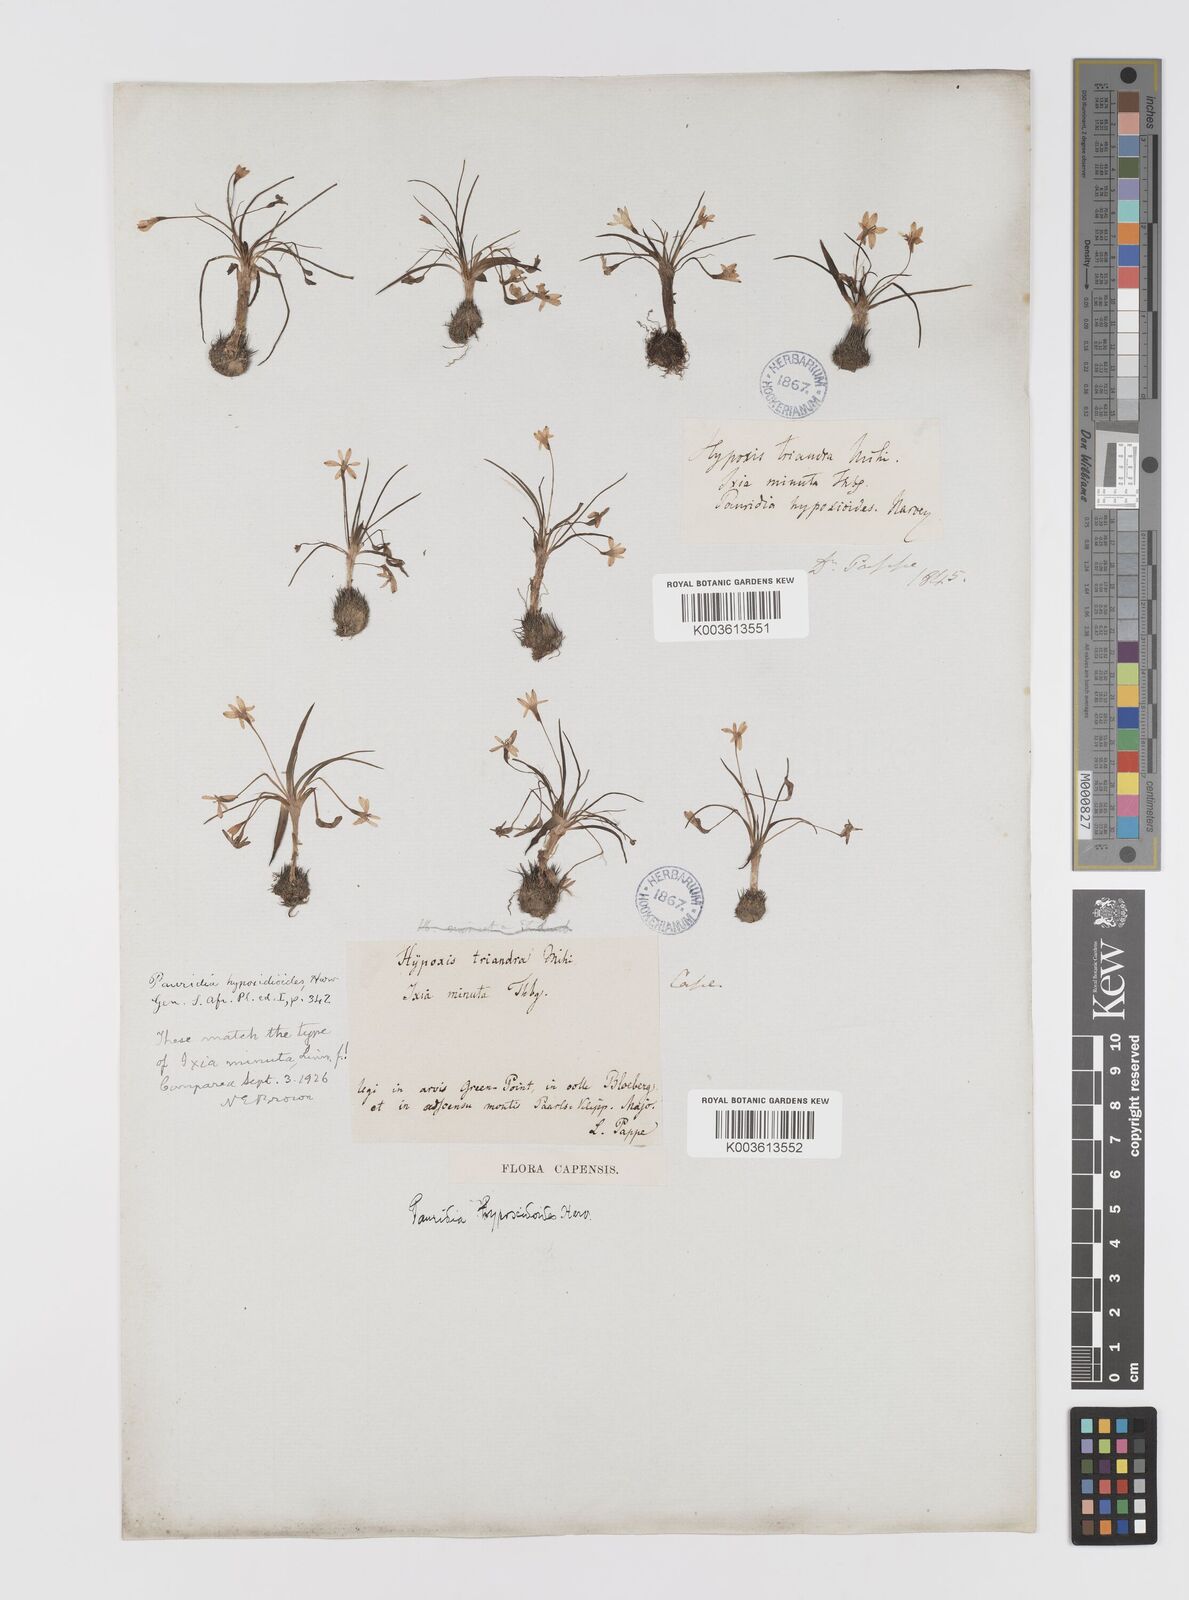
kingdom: Plantae
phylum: Tracheophyta
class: Liliopsida
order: Asparagales
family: Hypoxidaceae
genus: Pauridia
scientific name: Pauridia minuta
